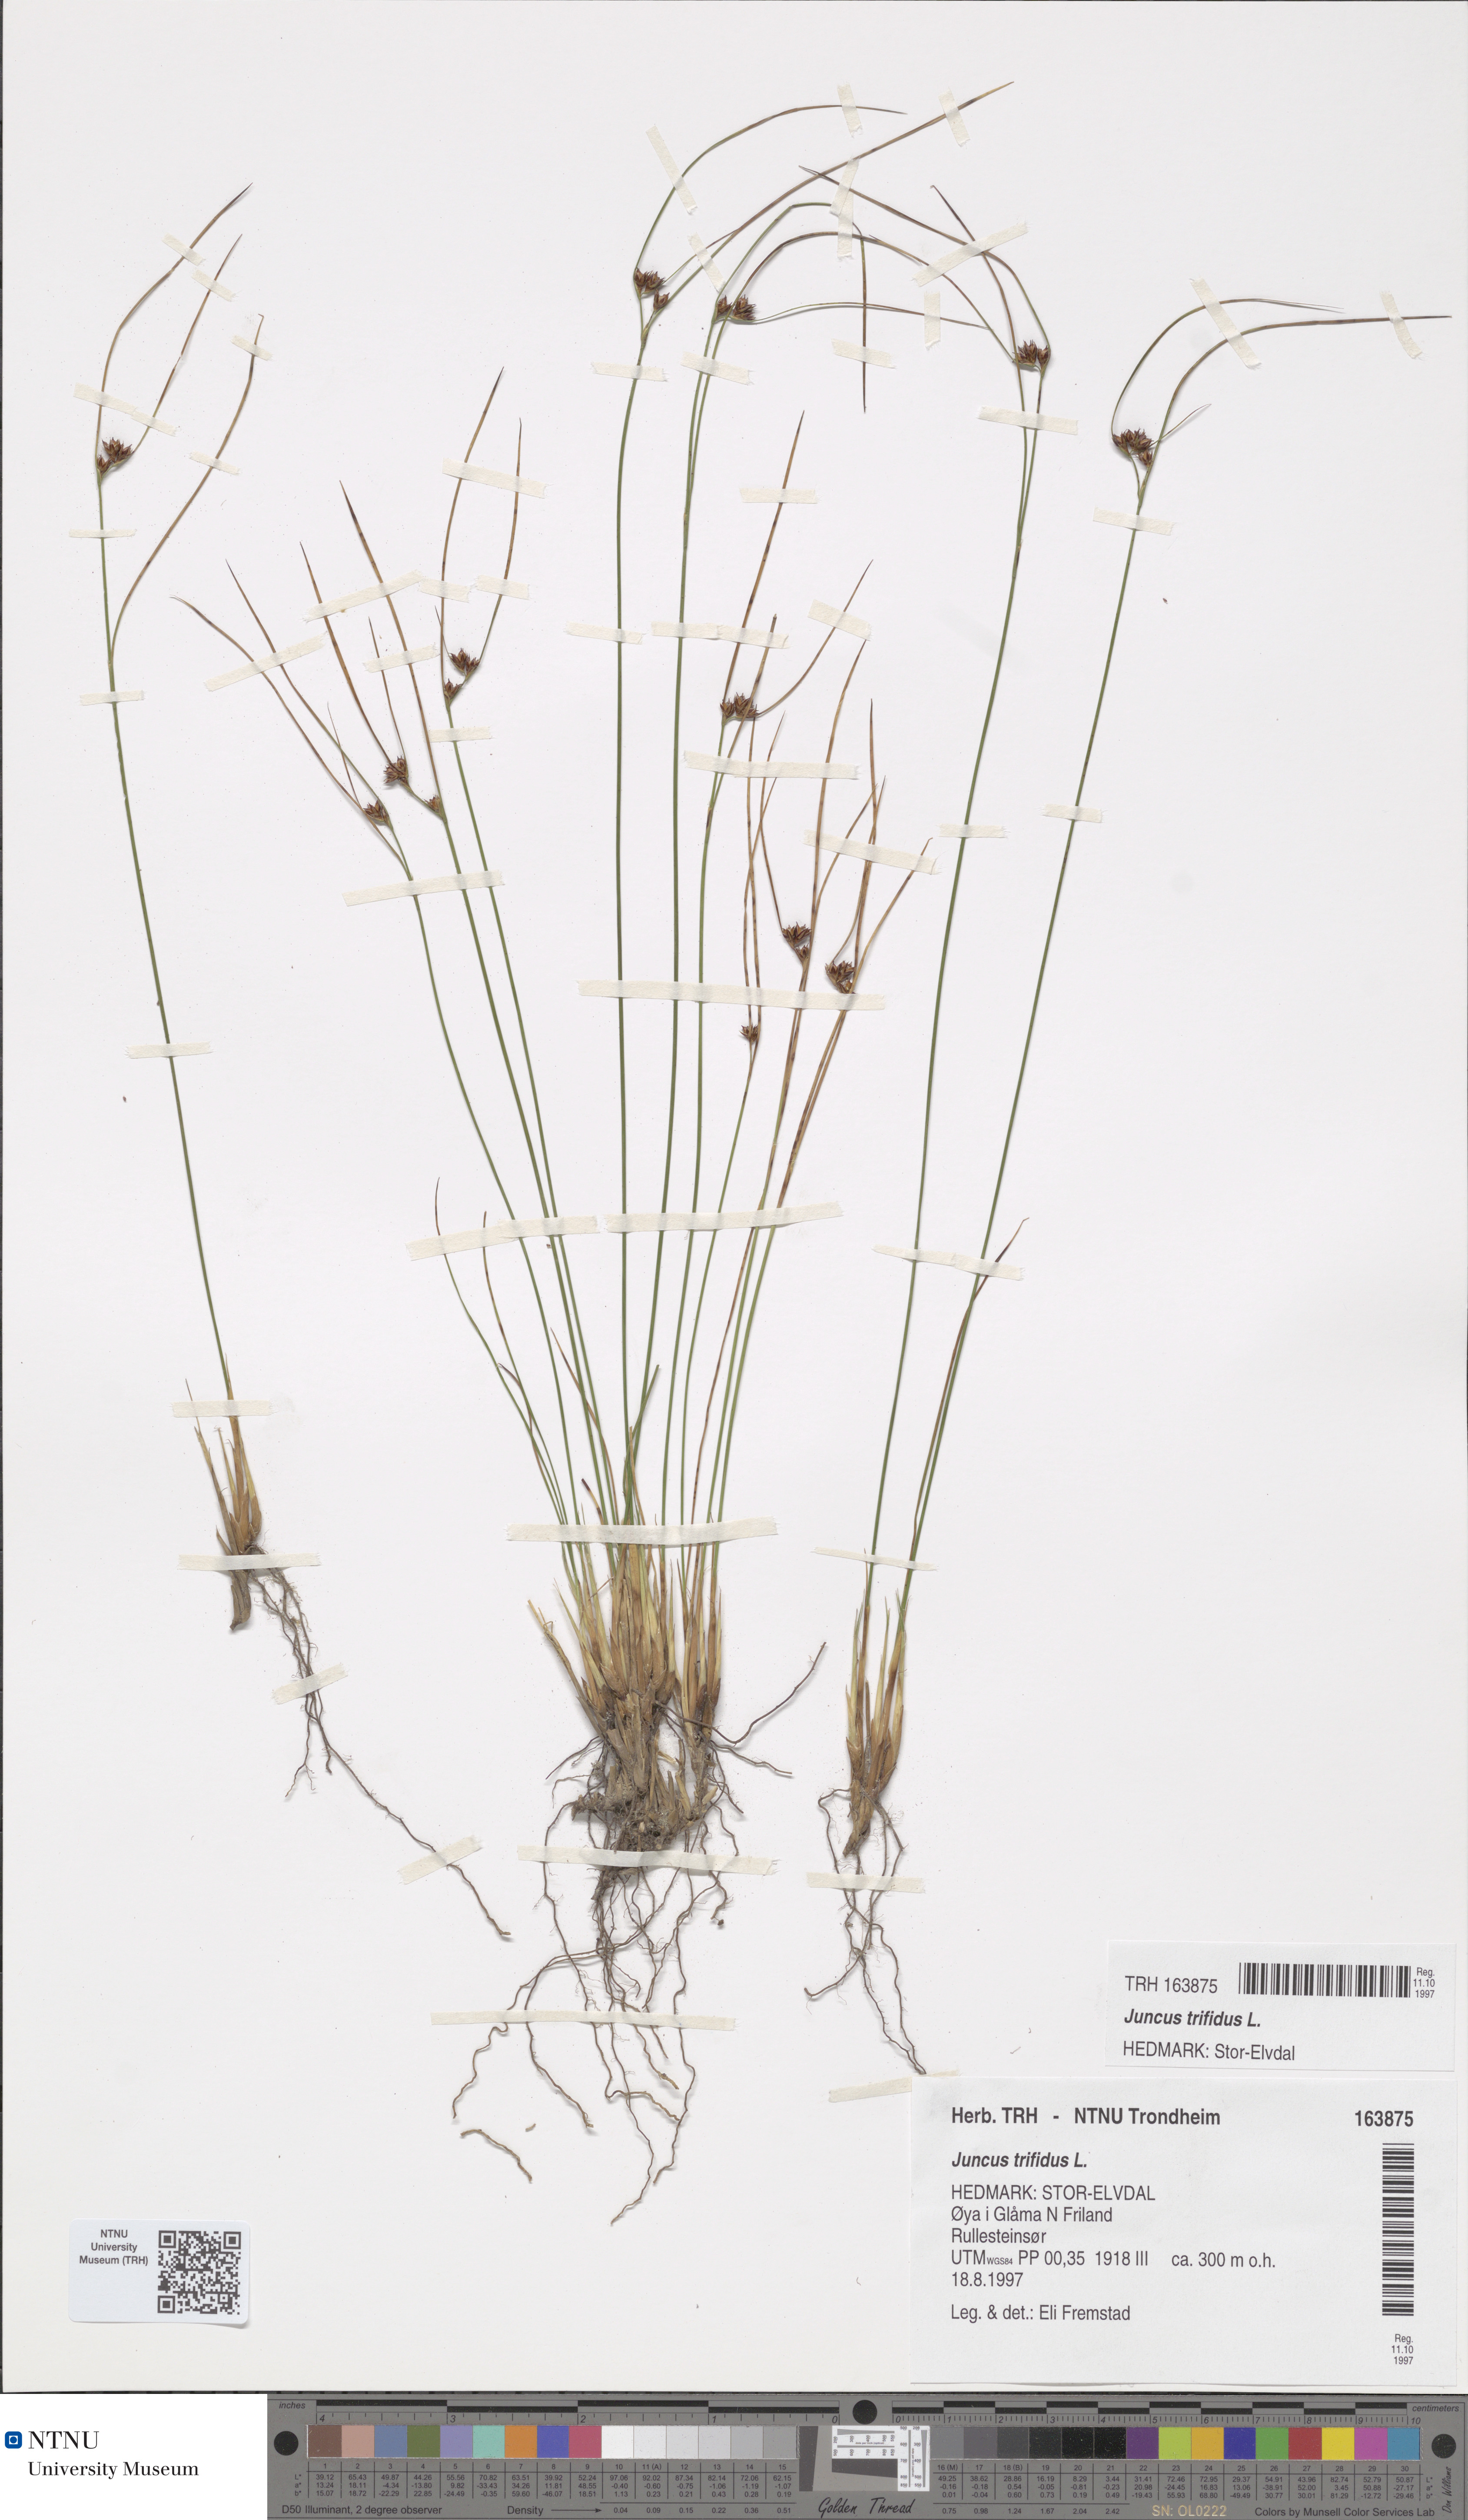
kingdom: Plantae
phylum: Tracheophyta
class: Liliopsida
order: Poales
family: Juncaceae
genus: Oreojuncus
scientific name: Oreojuncus trifidus
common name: Highland rush
